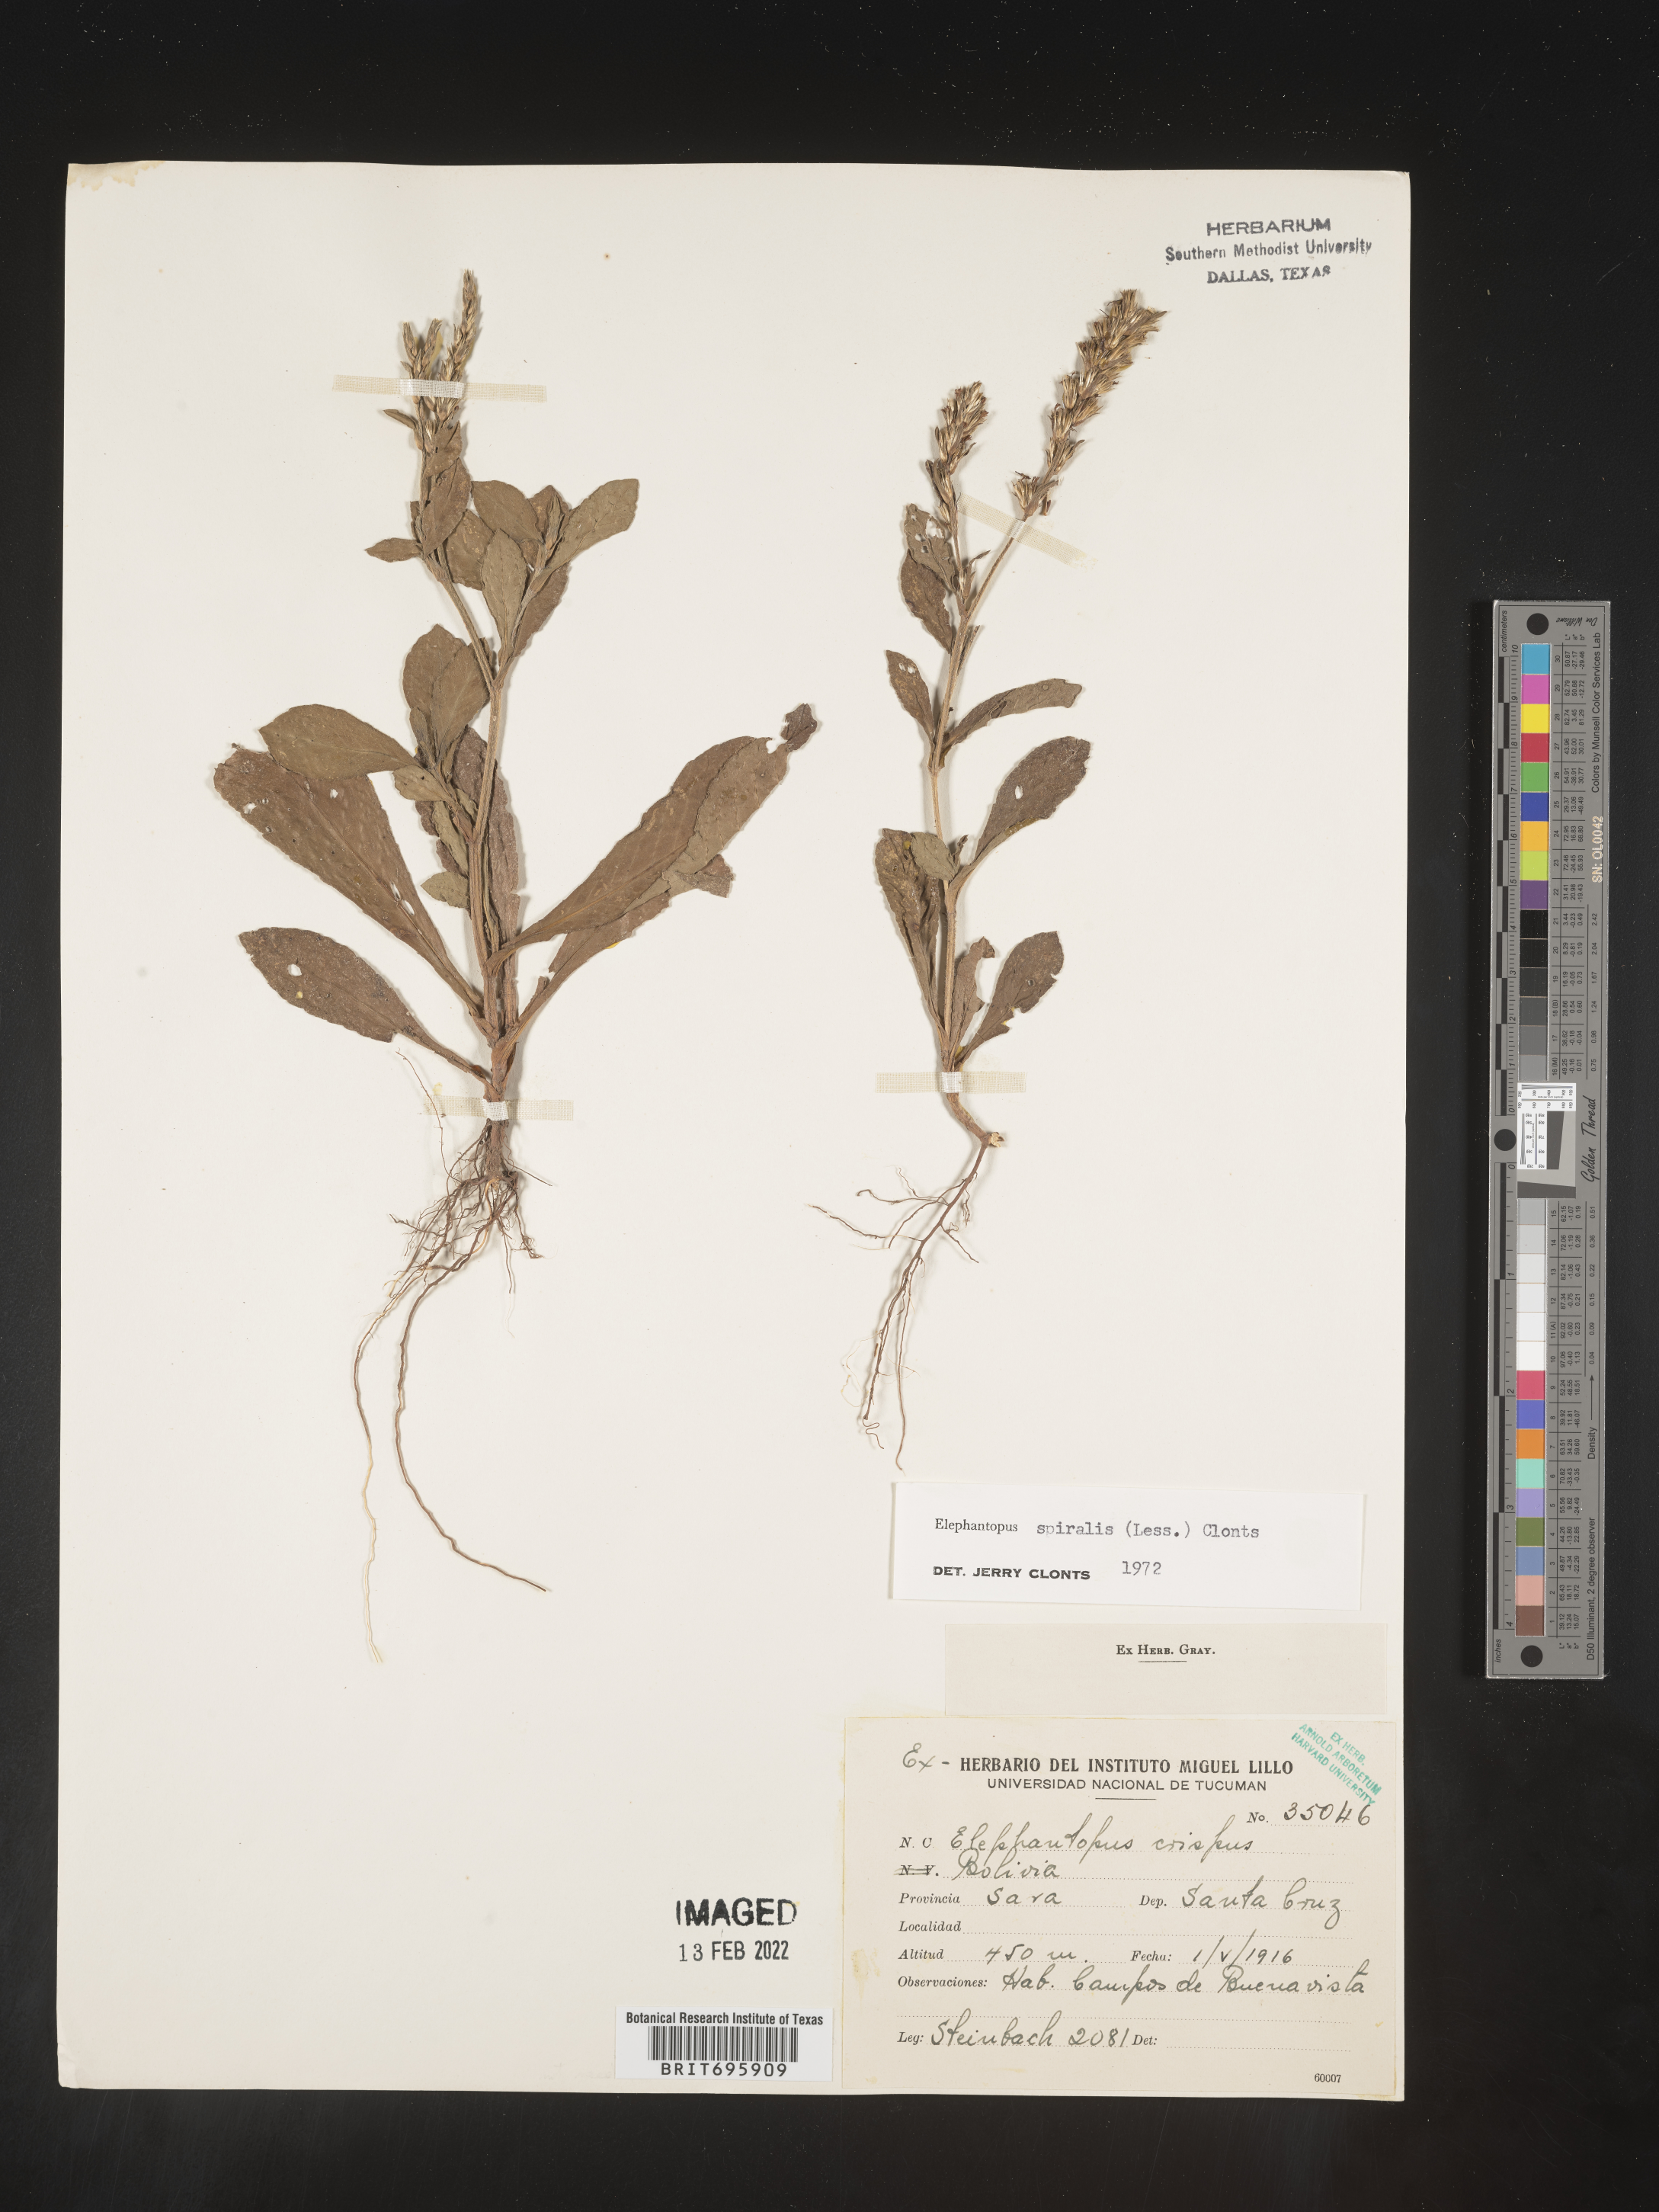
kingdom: Plantae
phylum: Tracheophyta
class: Magnoliopsida
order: Asterales
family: Asteraceae
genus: Elephantopus
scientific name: Elephantopus
